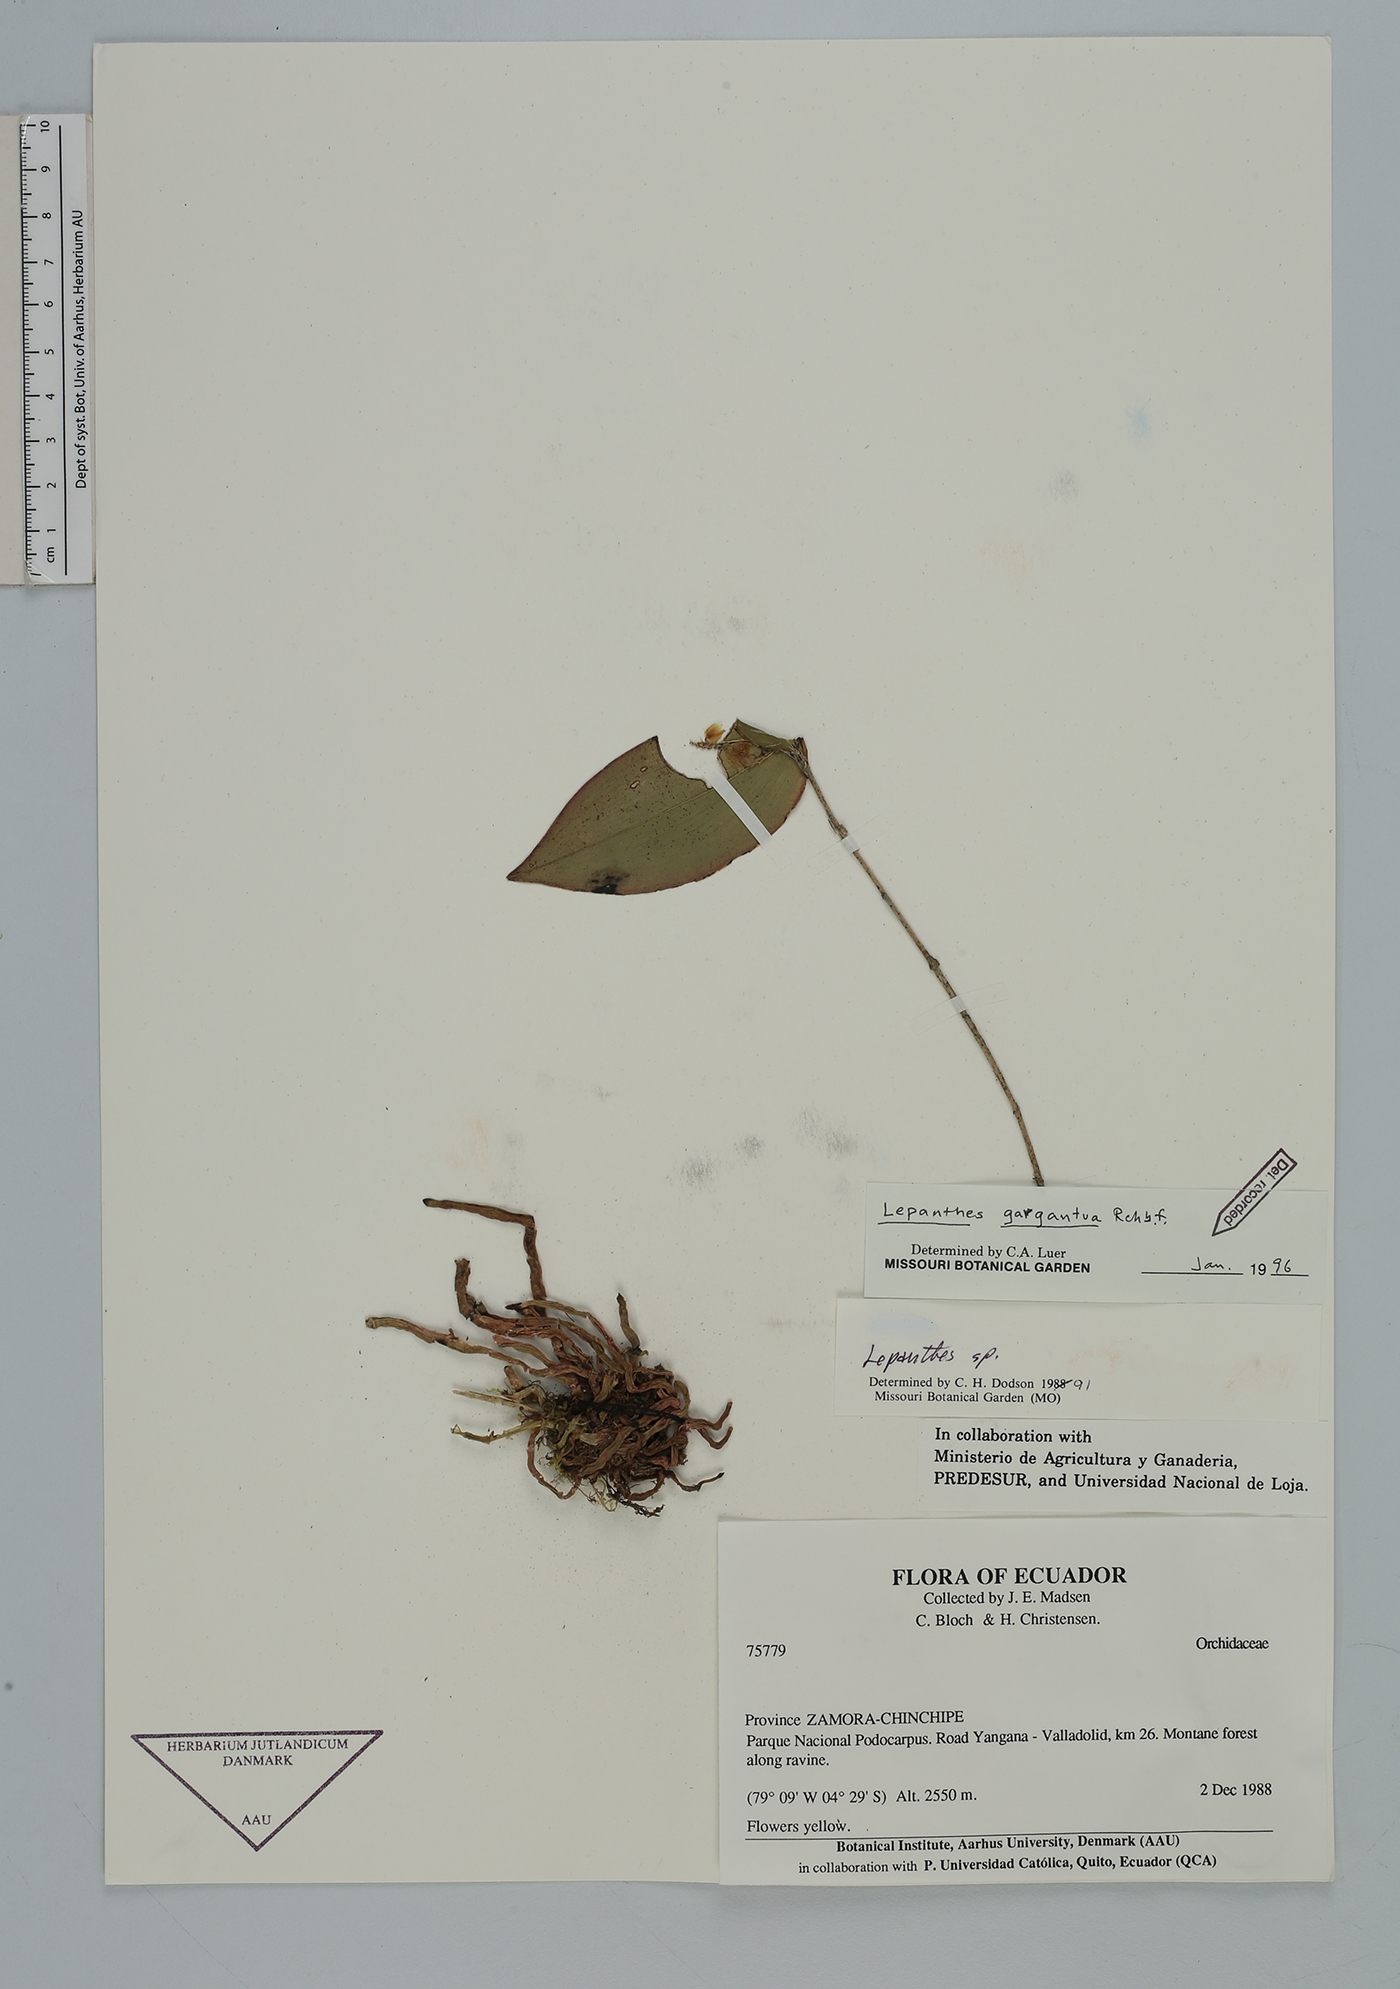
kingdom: Plantae
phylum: Tracheophyta
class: Liliopsida
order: Asparagales
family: Orchidaceae
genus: Lepanthes
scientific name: Lepanthes gargantua
